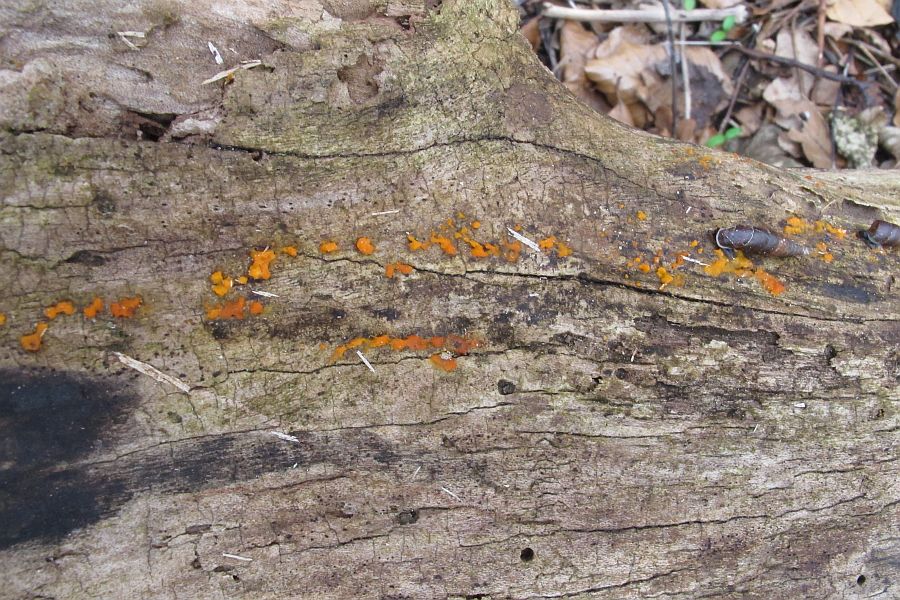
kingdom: Fungi
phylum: Basidiomycota
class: Dacrymycetes
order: Dacrymycetales
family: Dacrymycetaceae
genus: Dacrymyces
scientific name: Dacrymyces stillatus
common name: almindelig tåresvamp
